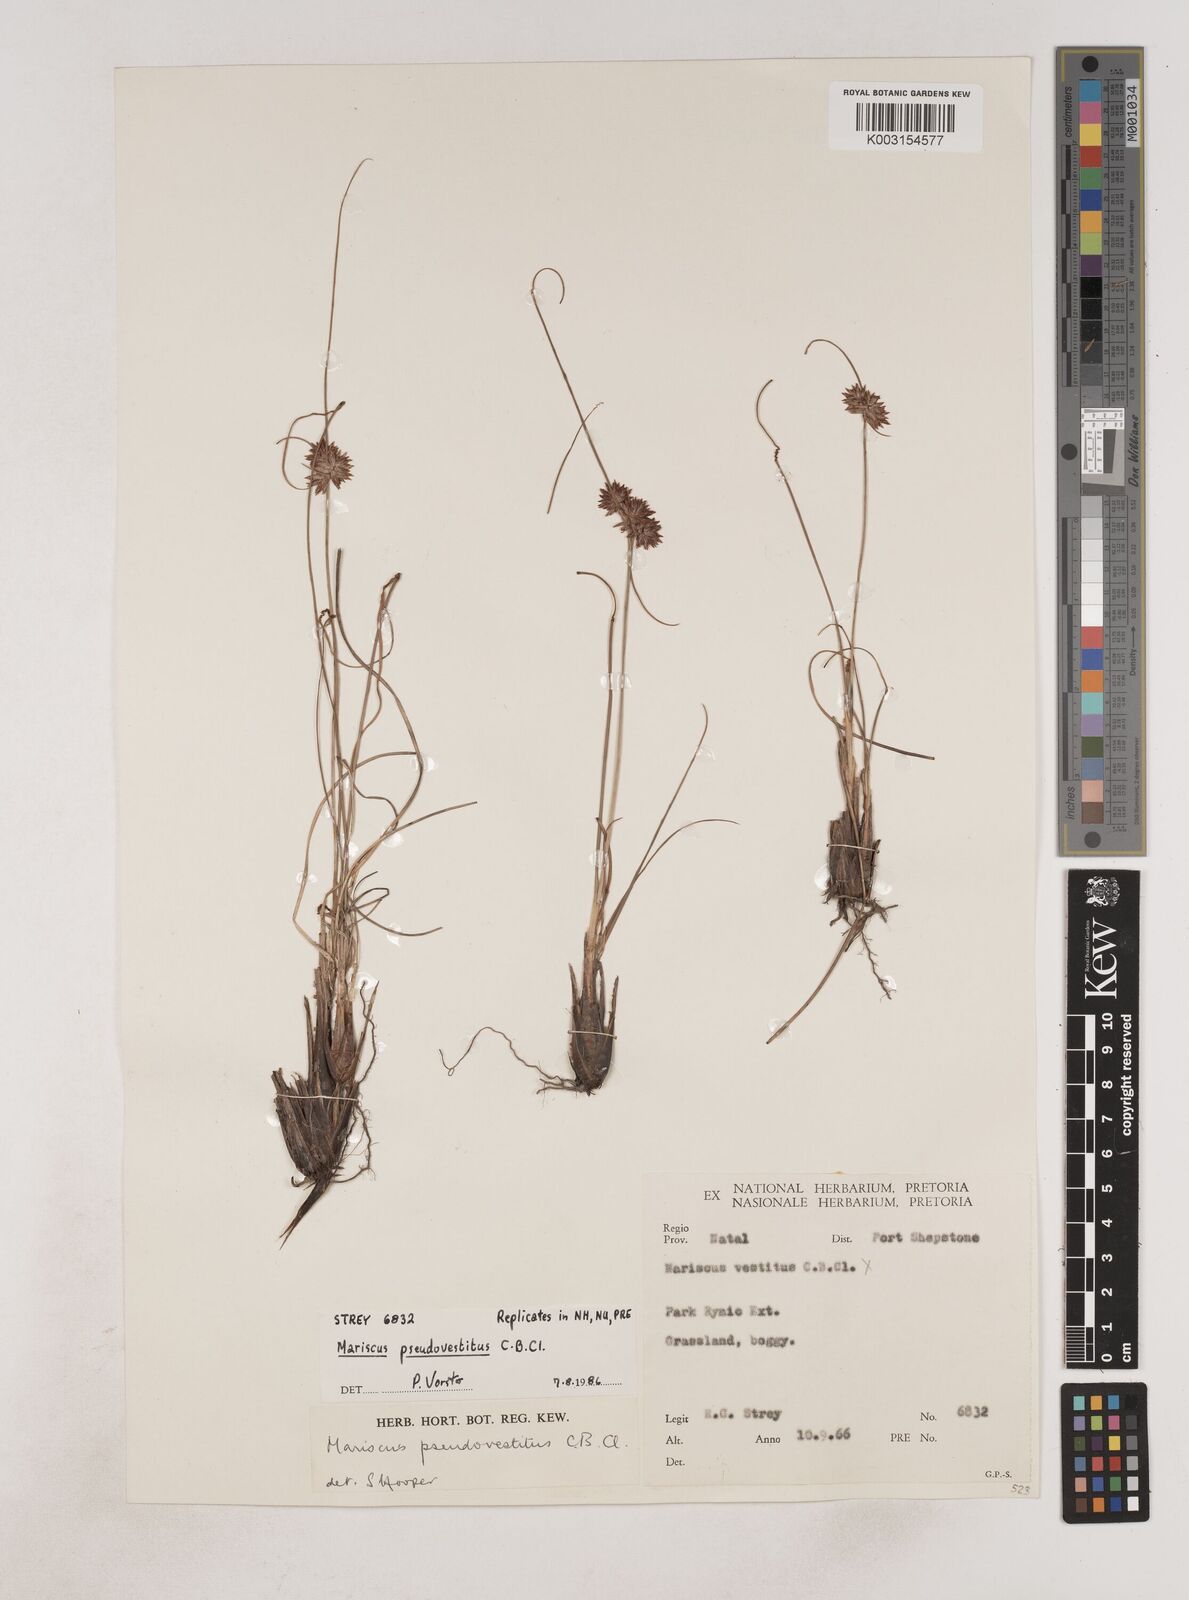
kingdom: Plantae
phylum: Tracheophyta
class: Liliopsida
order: Poales
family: Cyperaceae
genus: Cyperus
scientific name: Cyperus pseudovestitus
